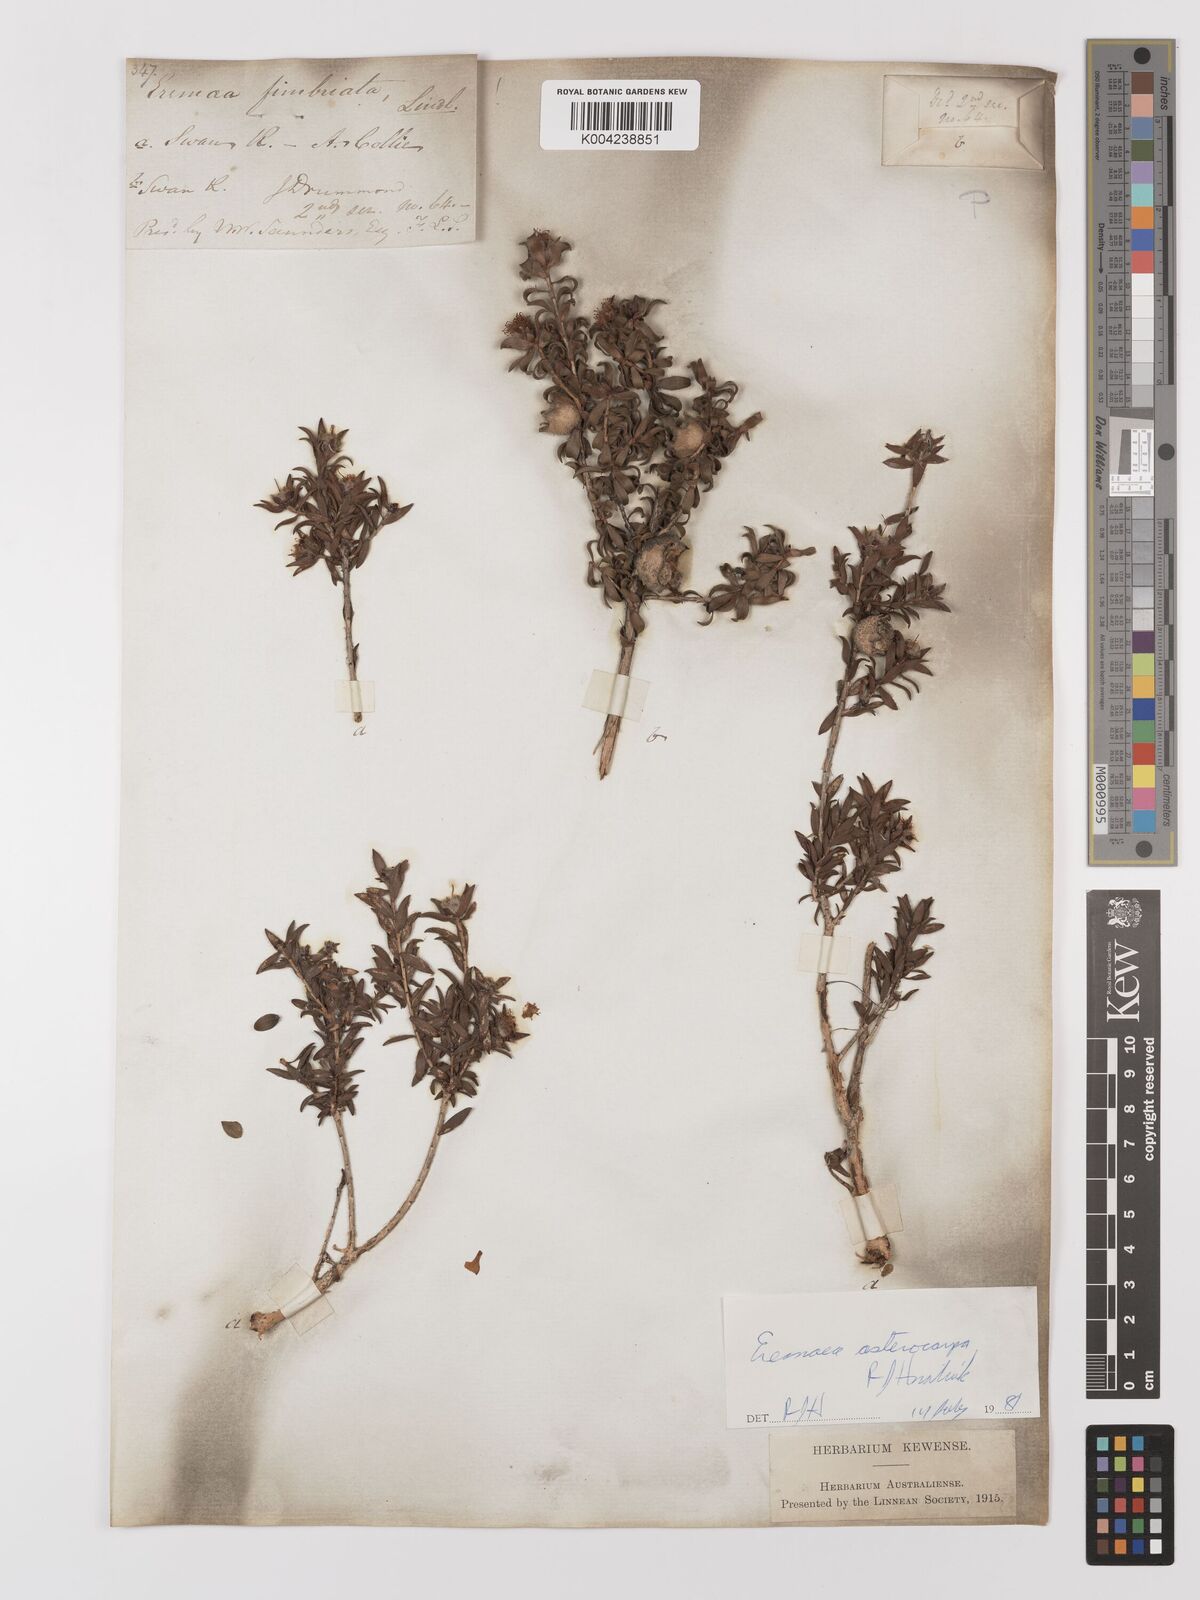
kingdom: Plantae
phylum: Tracheophyta
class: Magnoliopsida
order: Myrtales
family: Myrtaceae
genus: Melaleuca
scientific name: Melaleuca asterocarpa
